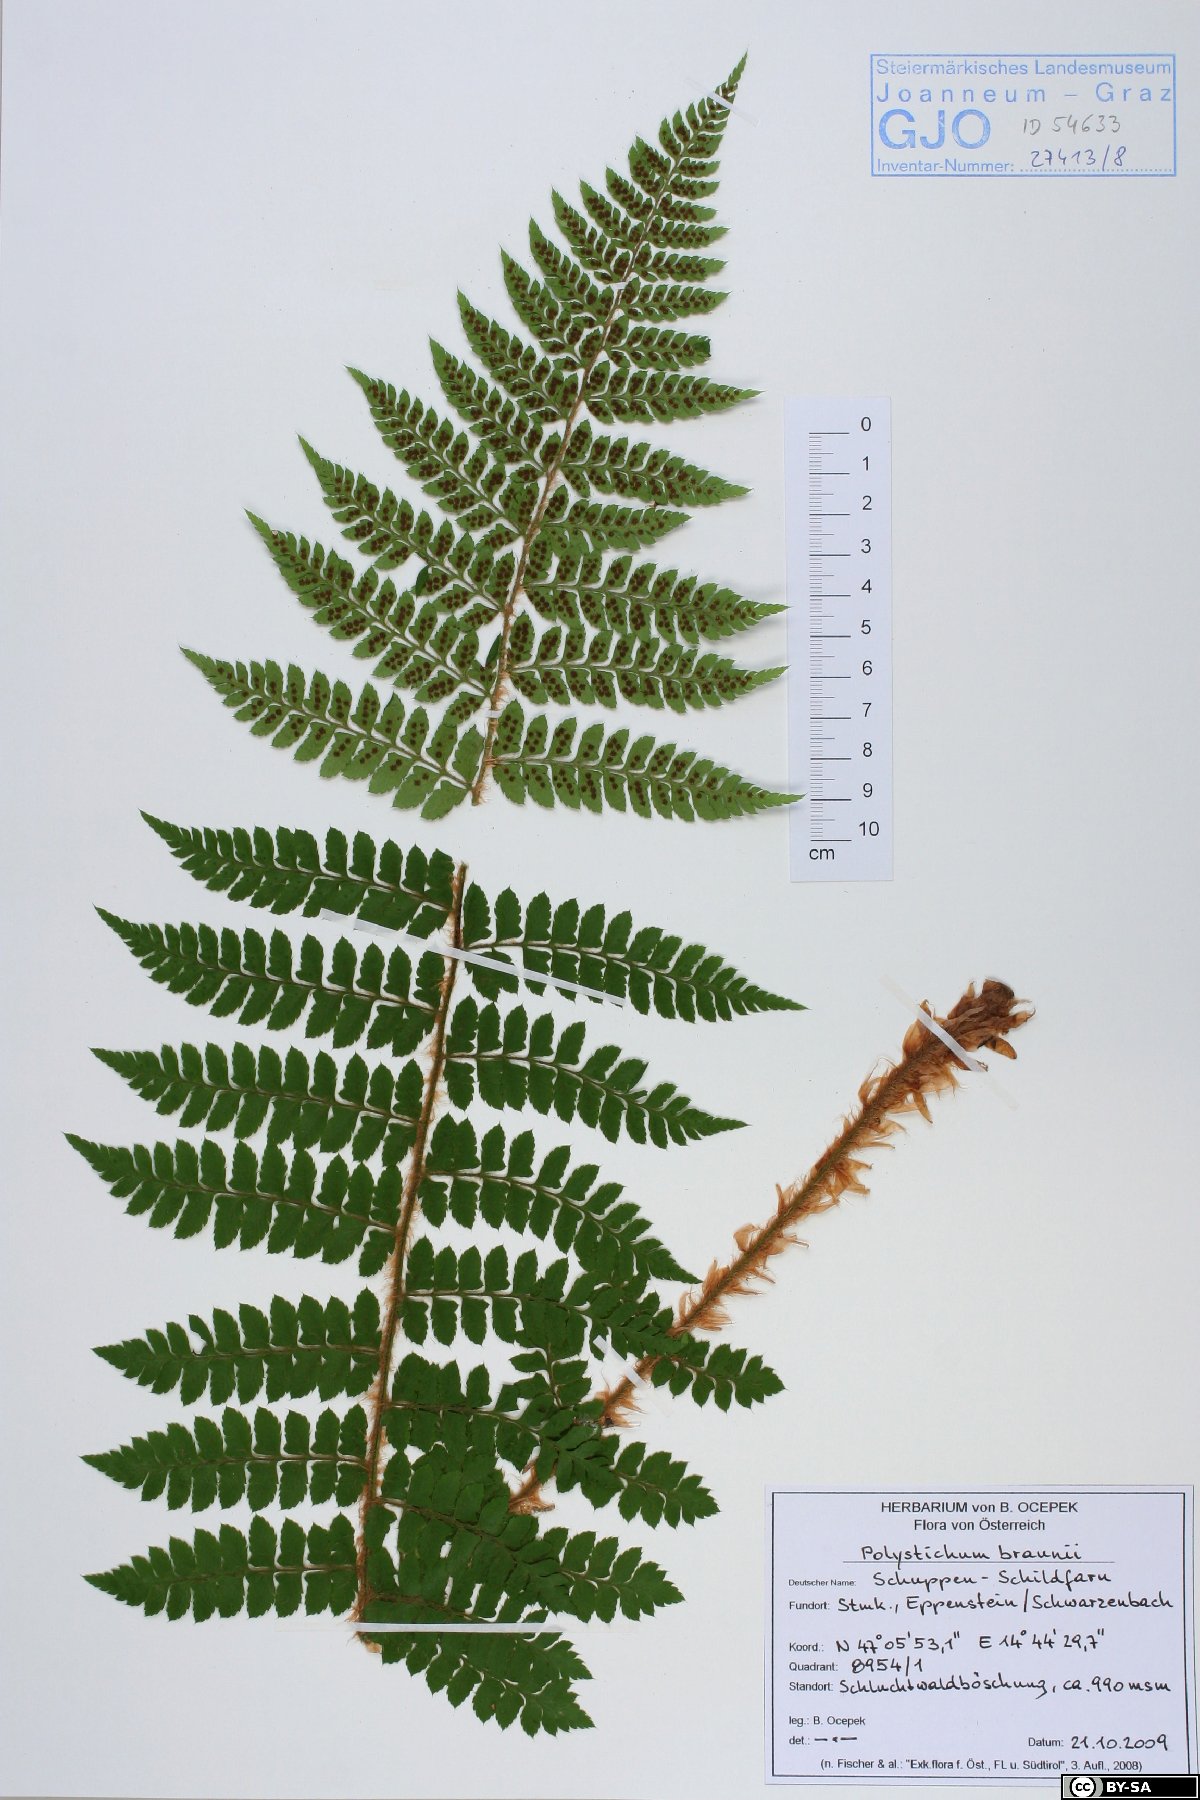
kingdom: Plantae
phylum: Tracheophyta
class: Polypodiopsida
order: Polypodiales
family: Dryopteridaceae
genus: Polystichum
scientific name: Polystichum braunii
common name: Braun's holly fern
